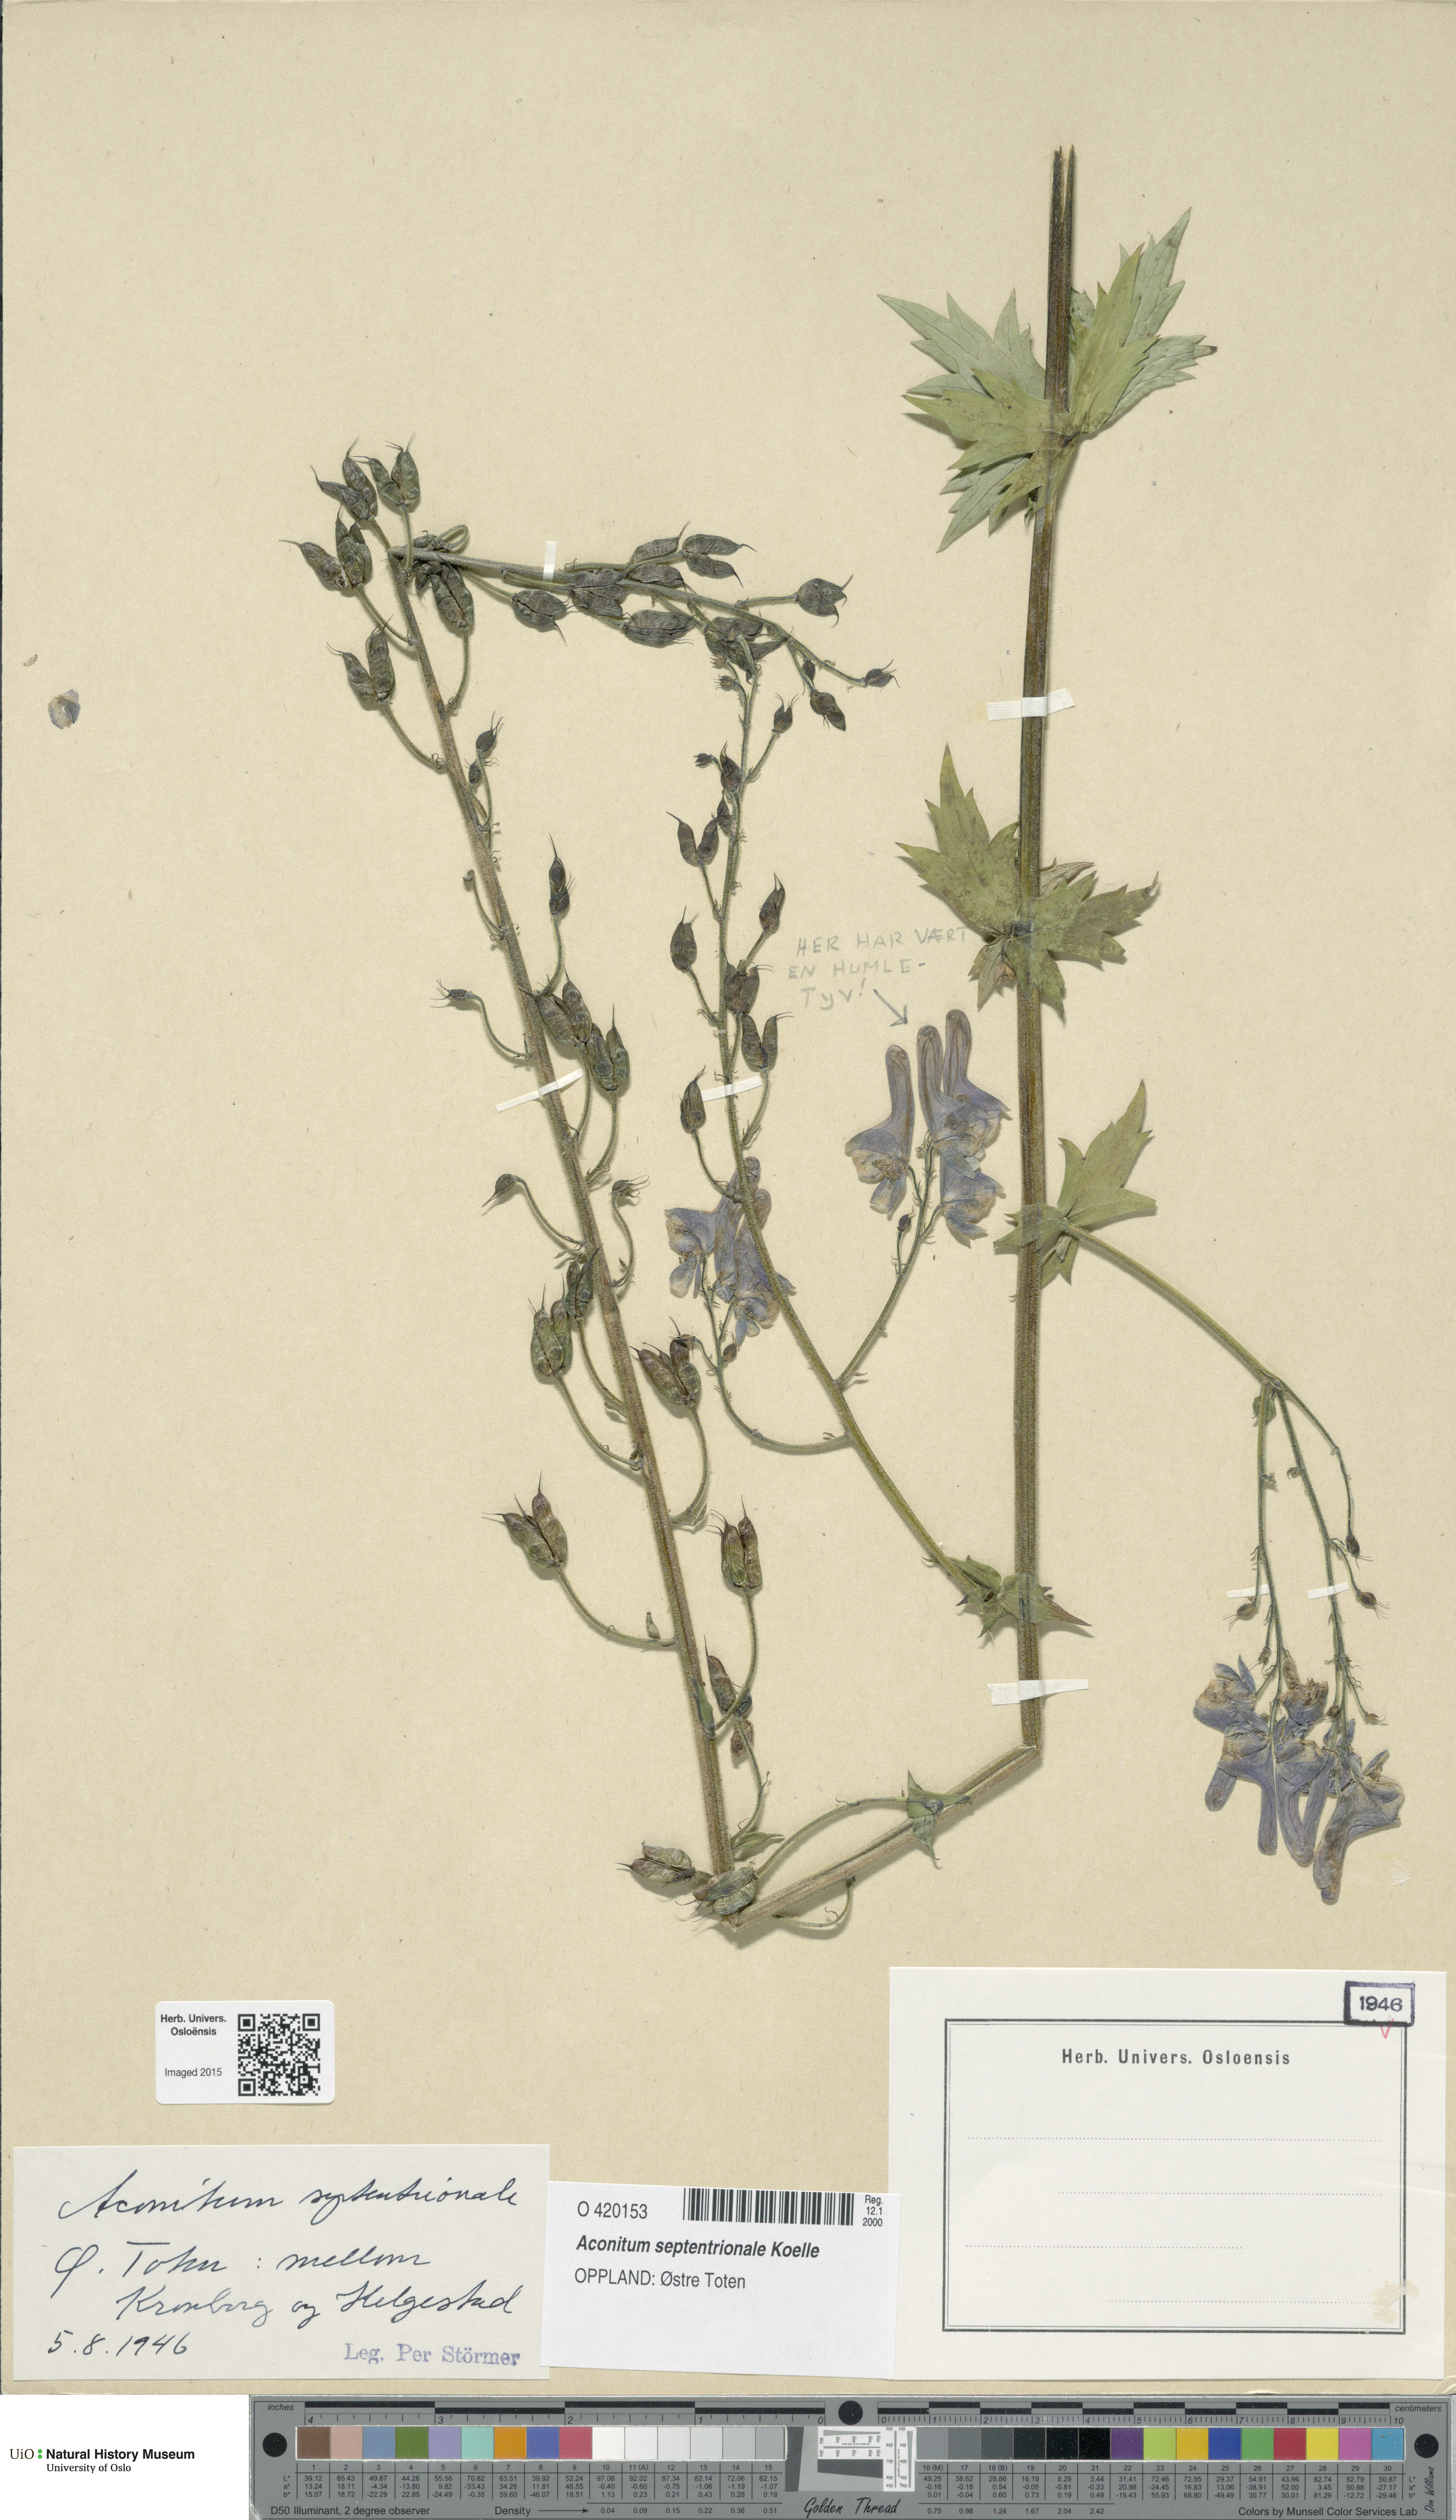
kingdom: Plantae
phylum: Tracheophyta
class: Magnoliopsida
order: Ranunculales
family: Ranunculaceae
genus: Aconitum
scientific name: Aconitum septentrionale
